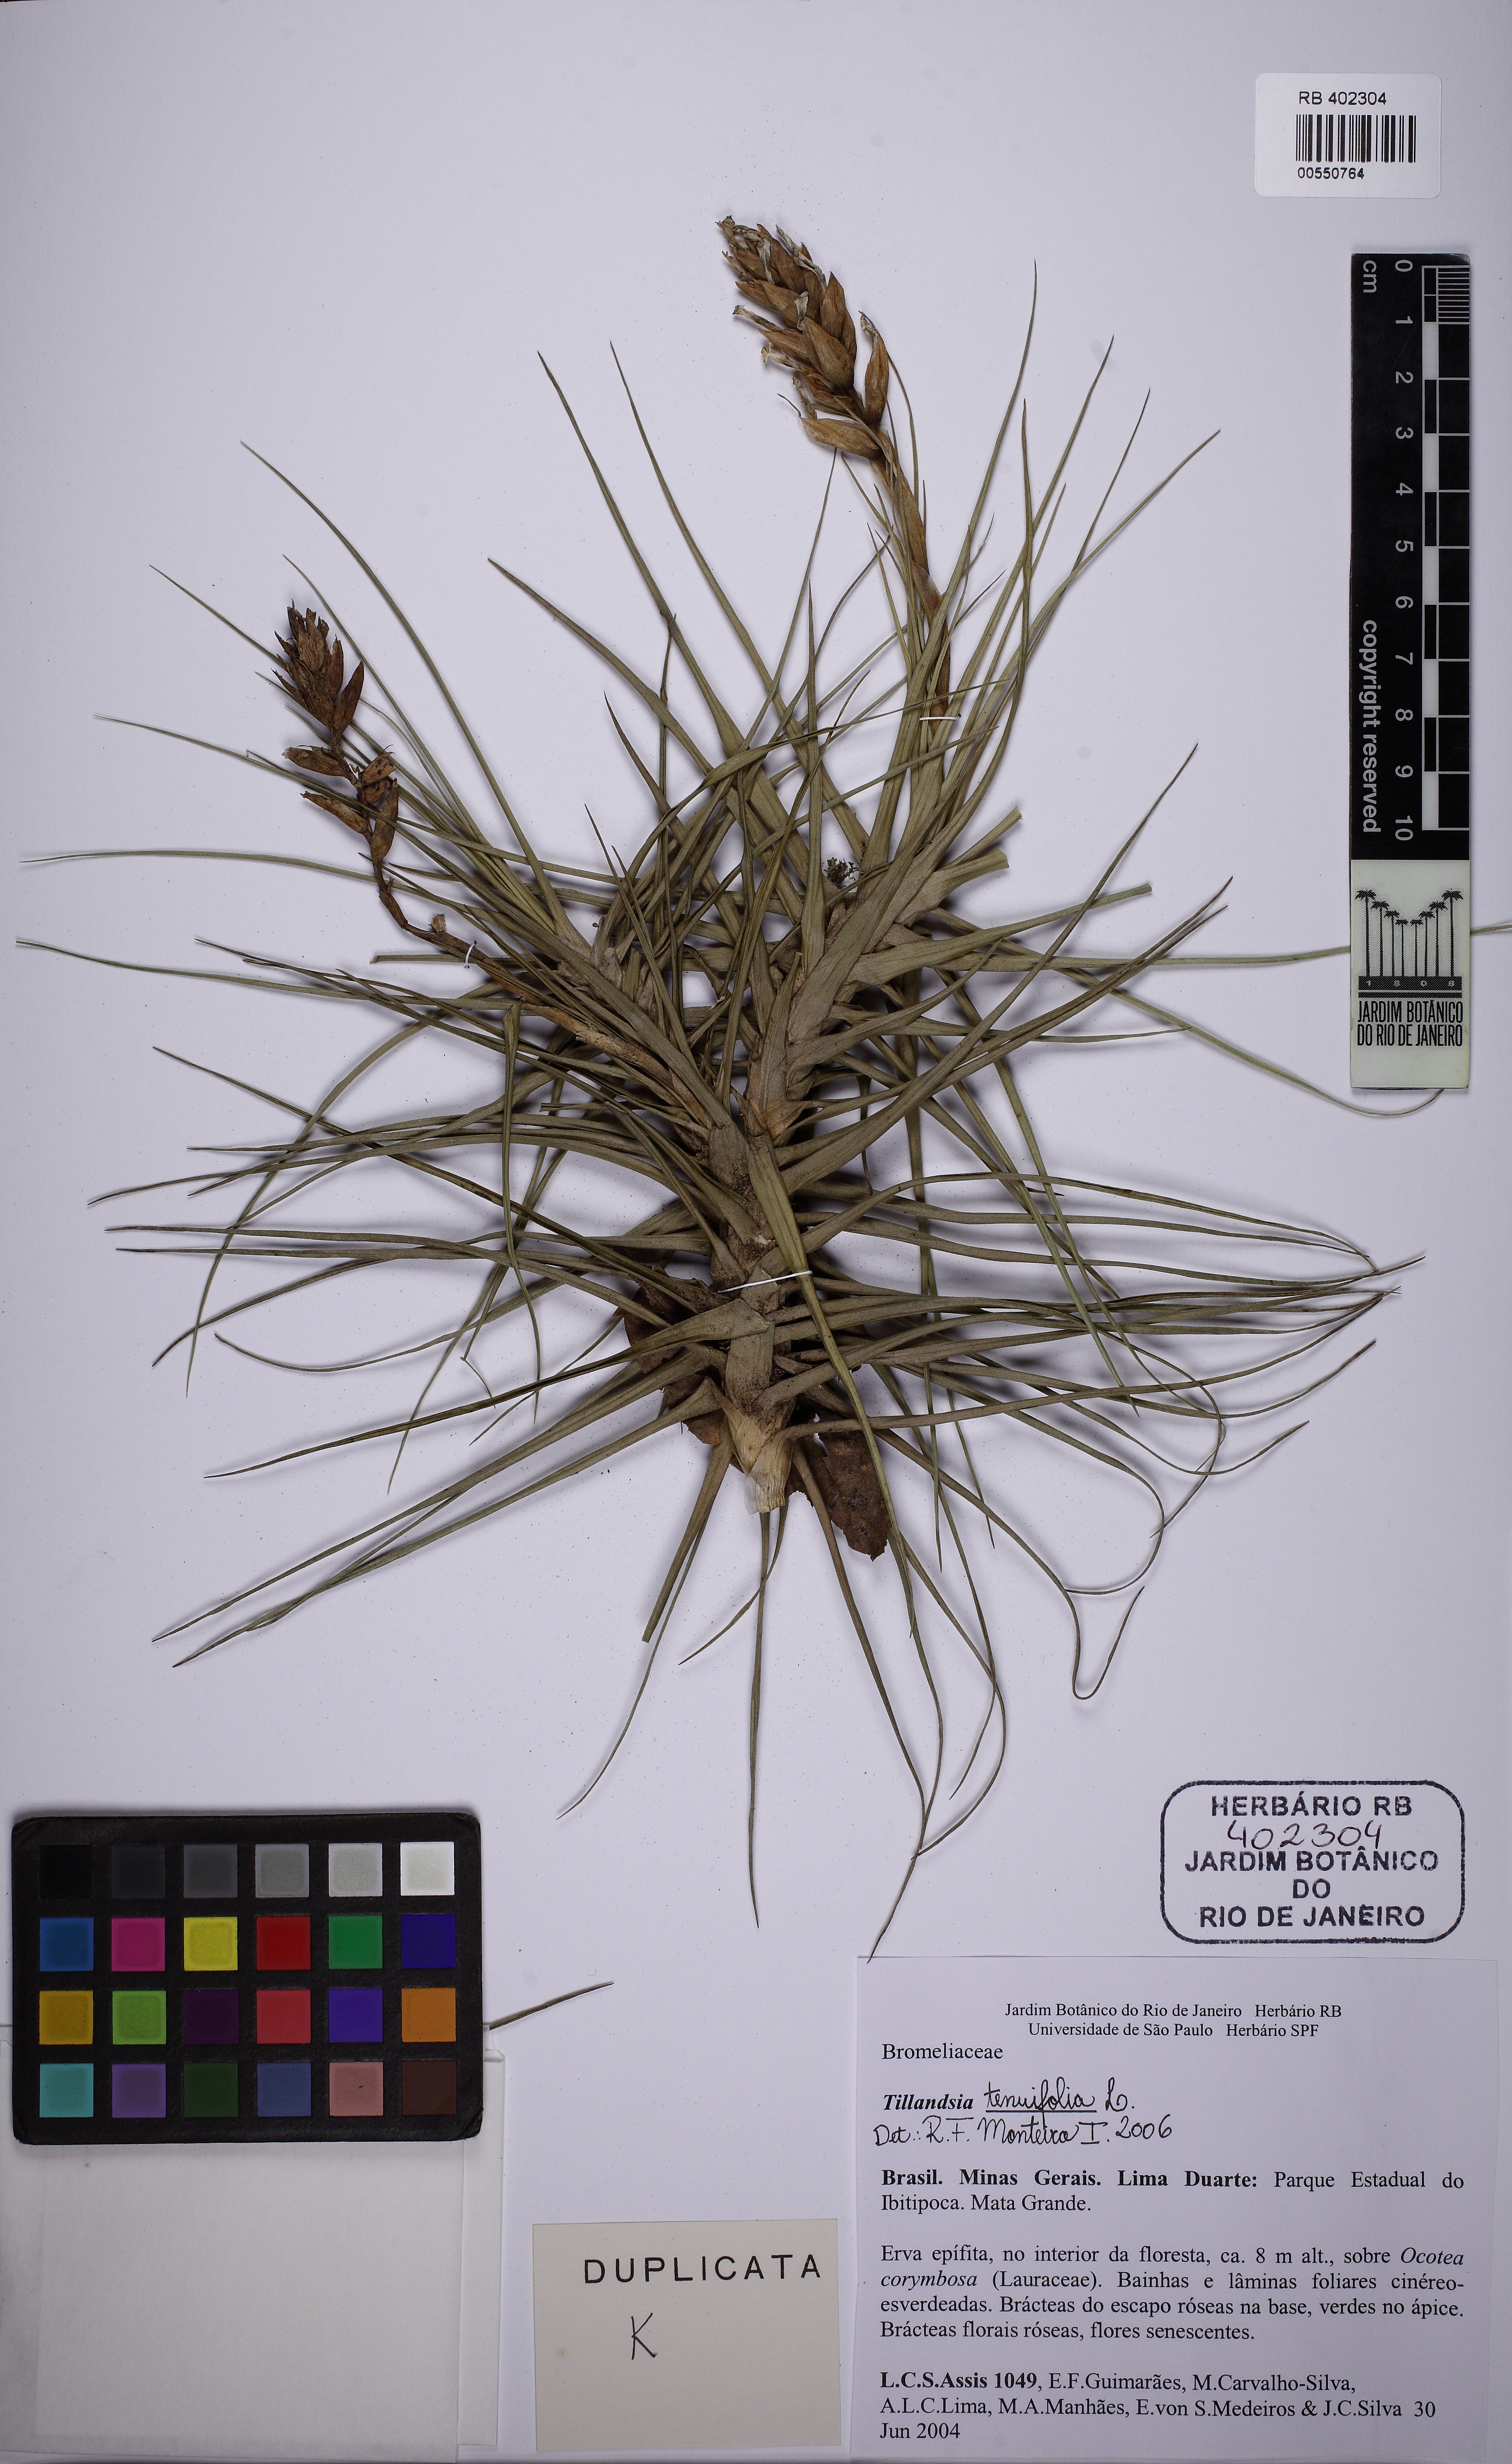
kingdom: Plantae
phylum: Tracheophyta
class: Liliopsida
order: Poales
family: Bromeliaceae
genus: Tillandsia
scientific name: Tillandsia tenuifolia
